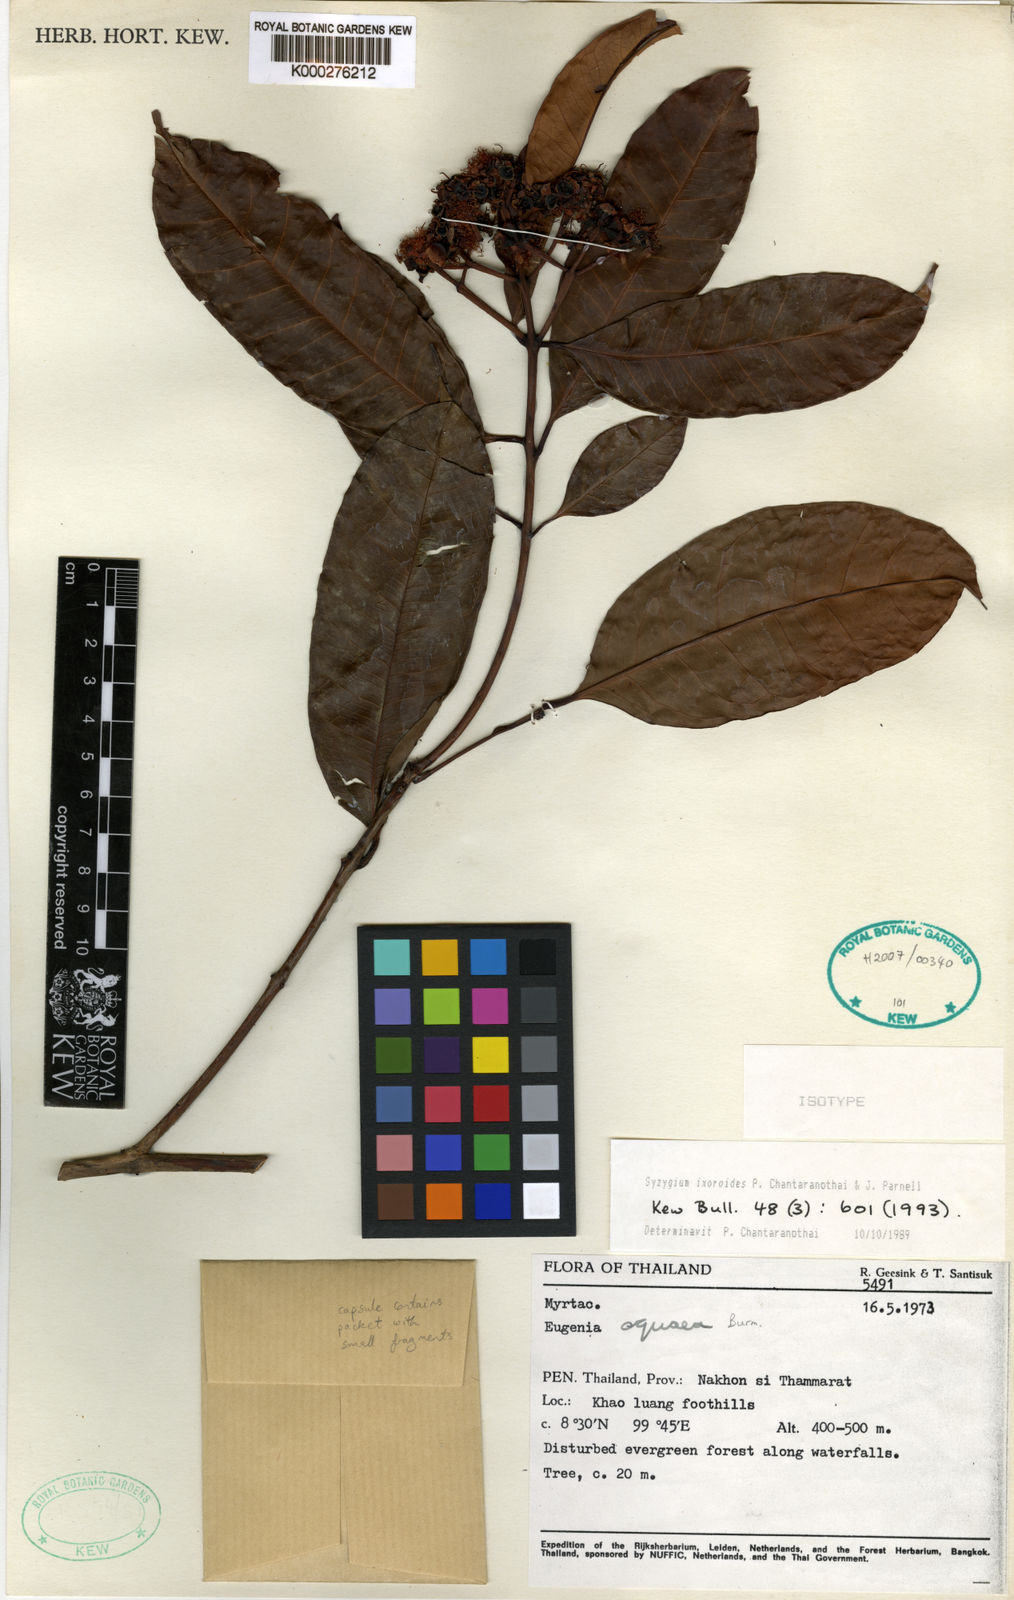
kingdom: Plantae
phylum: Tracheophyta
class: Magnoliopsida
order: Myrtales
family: Myrtaceae
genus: Syzygium
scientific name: Syzygium ixoroides
